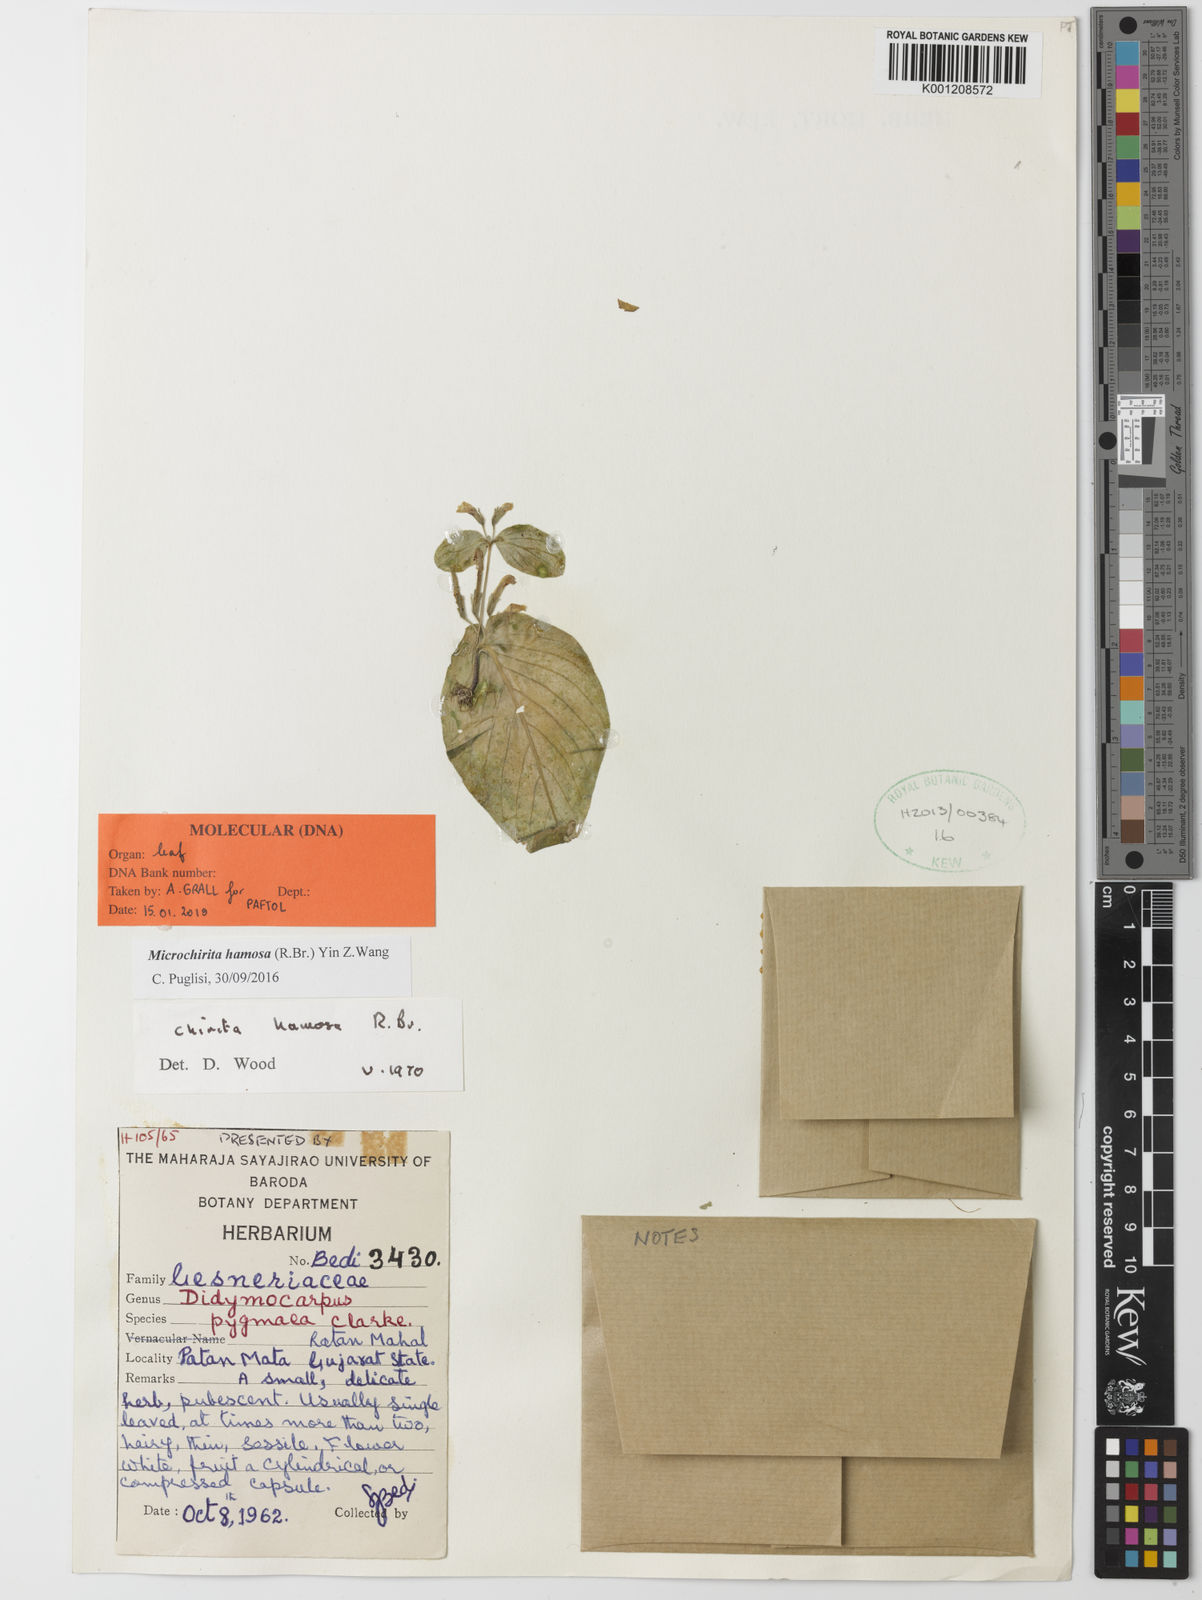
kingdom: Plantae
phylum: Tracheophyta
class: Magnoliopsida
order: Lamiales
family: Gesneriaceae
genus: Microchirita
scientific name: Microchirita hamosa
